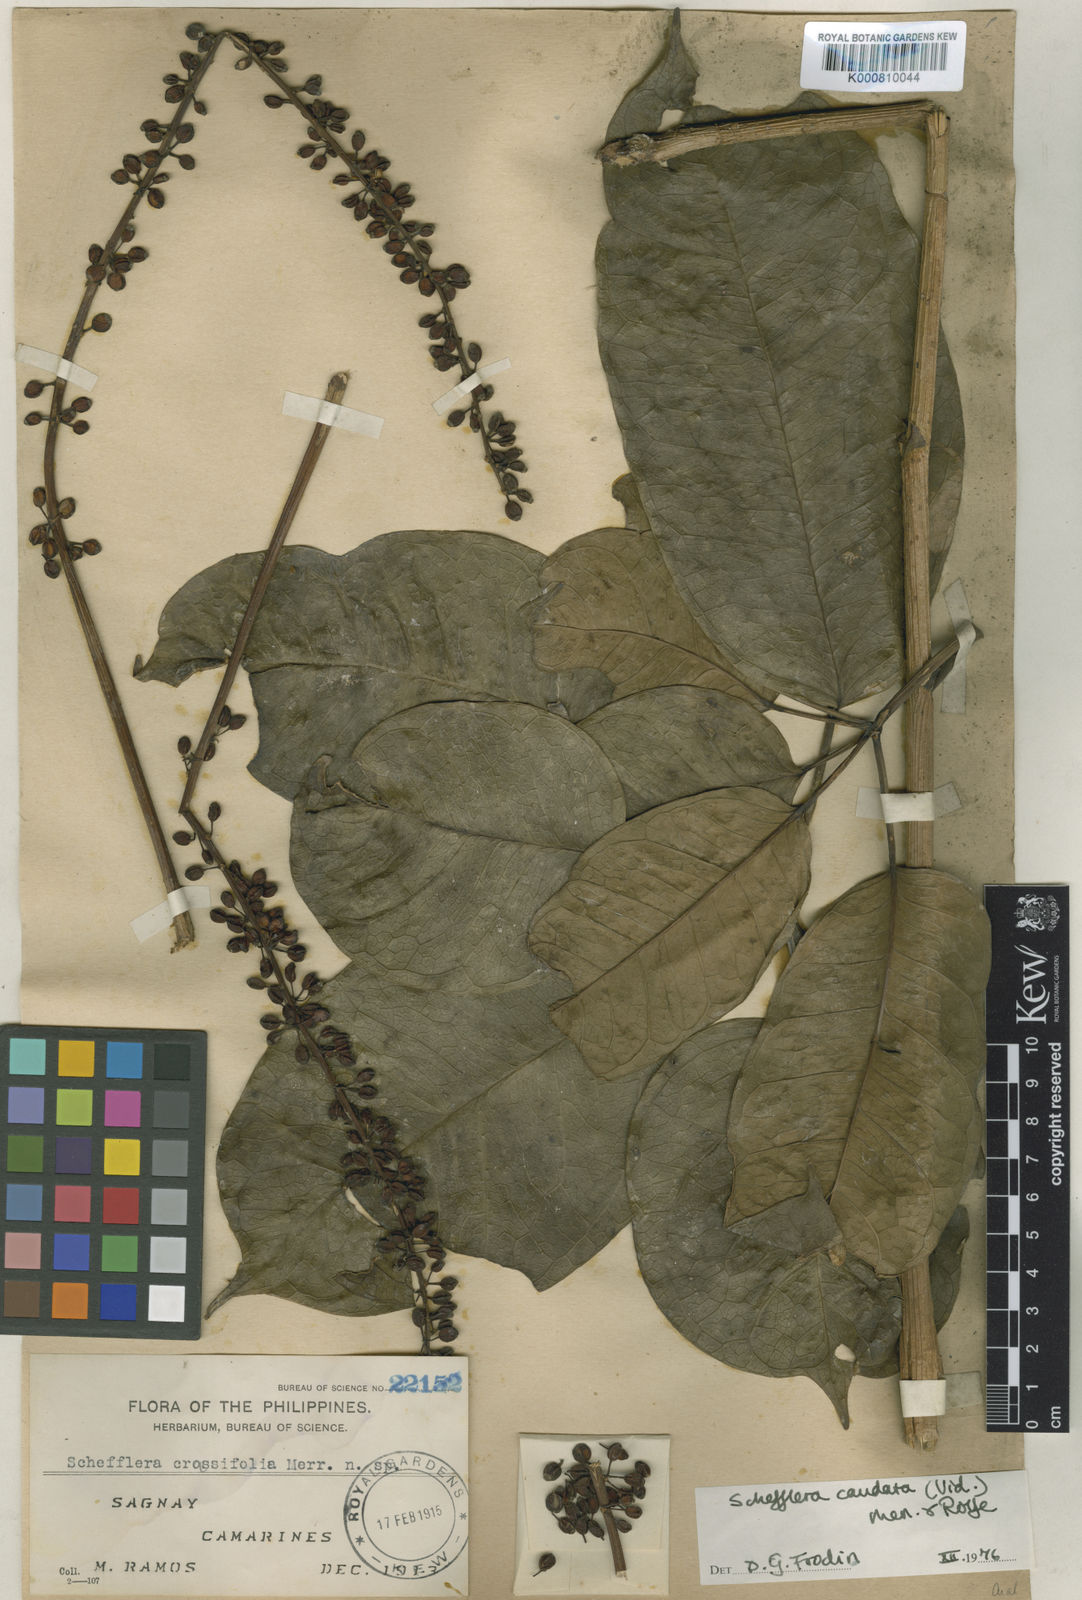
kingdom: Plantae
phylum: Tracheophyta
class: Magnoliopsida
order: Apiales
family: Araliaceae
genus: Heptapleurum
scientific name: Heptapleurum crassifolium
